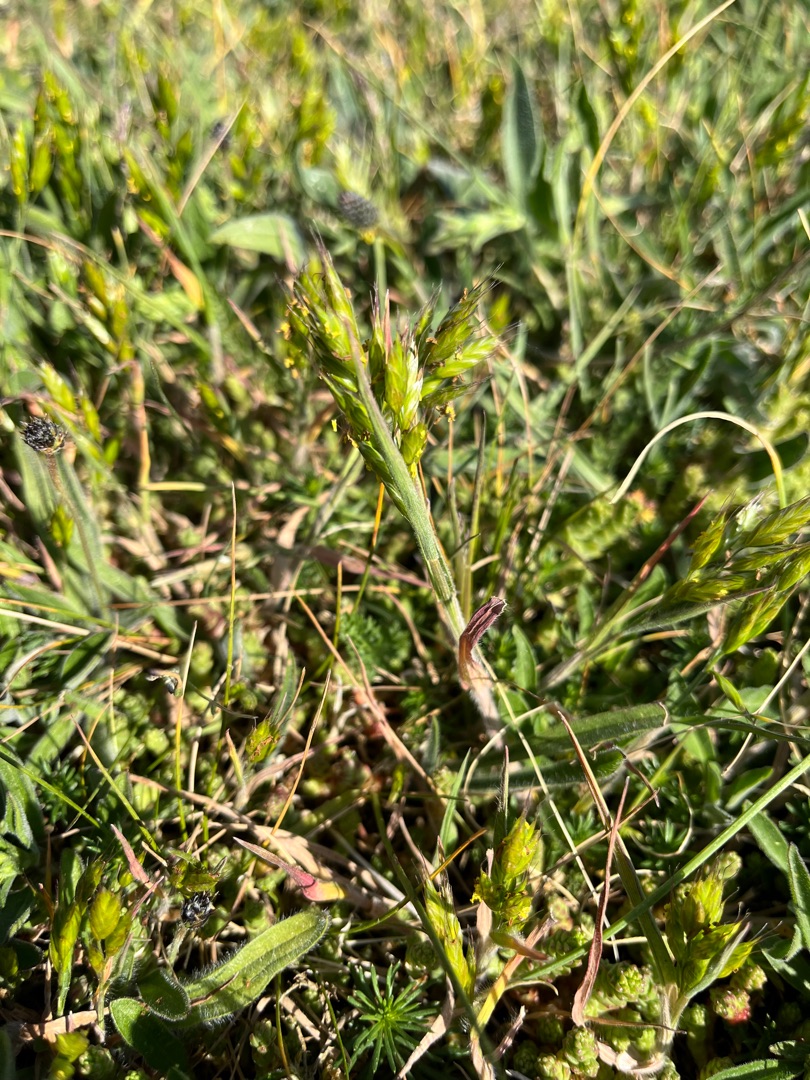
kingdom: Plantae
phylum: Tracheophyta
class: Liliopsida
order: Poales
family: Poaceae
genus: Bromus
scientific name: Bromus hordeaceus
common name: Blød hejre
